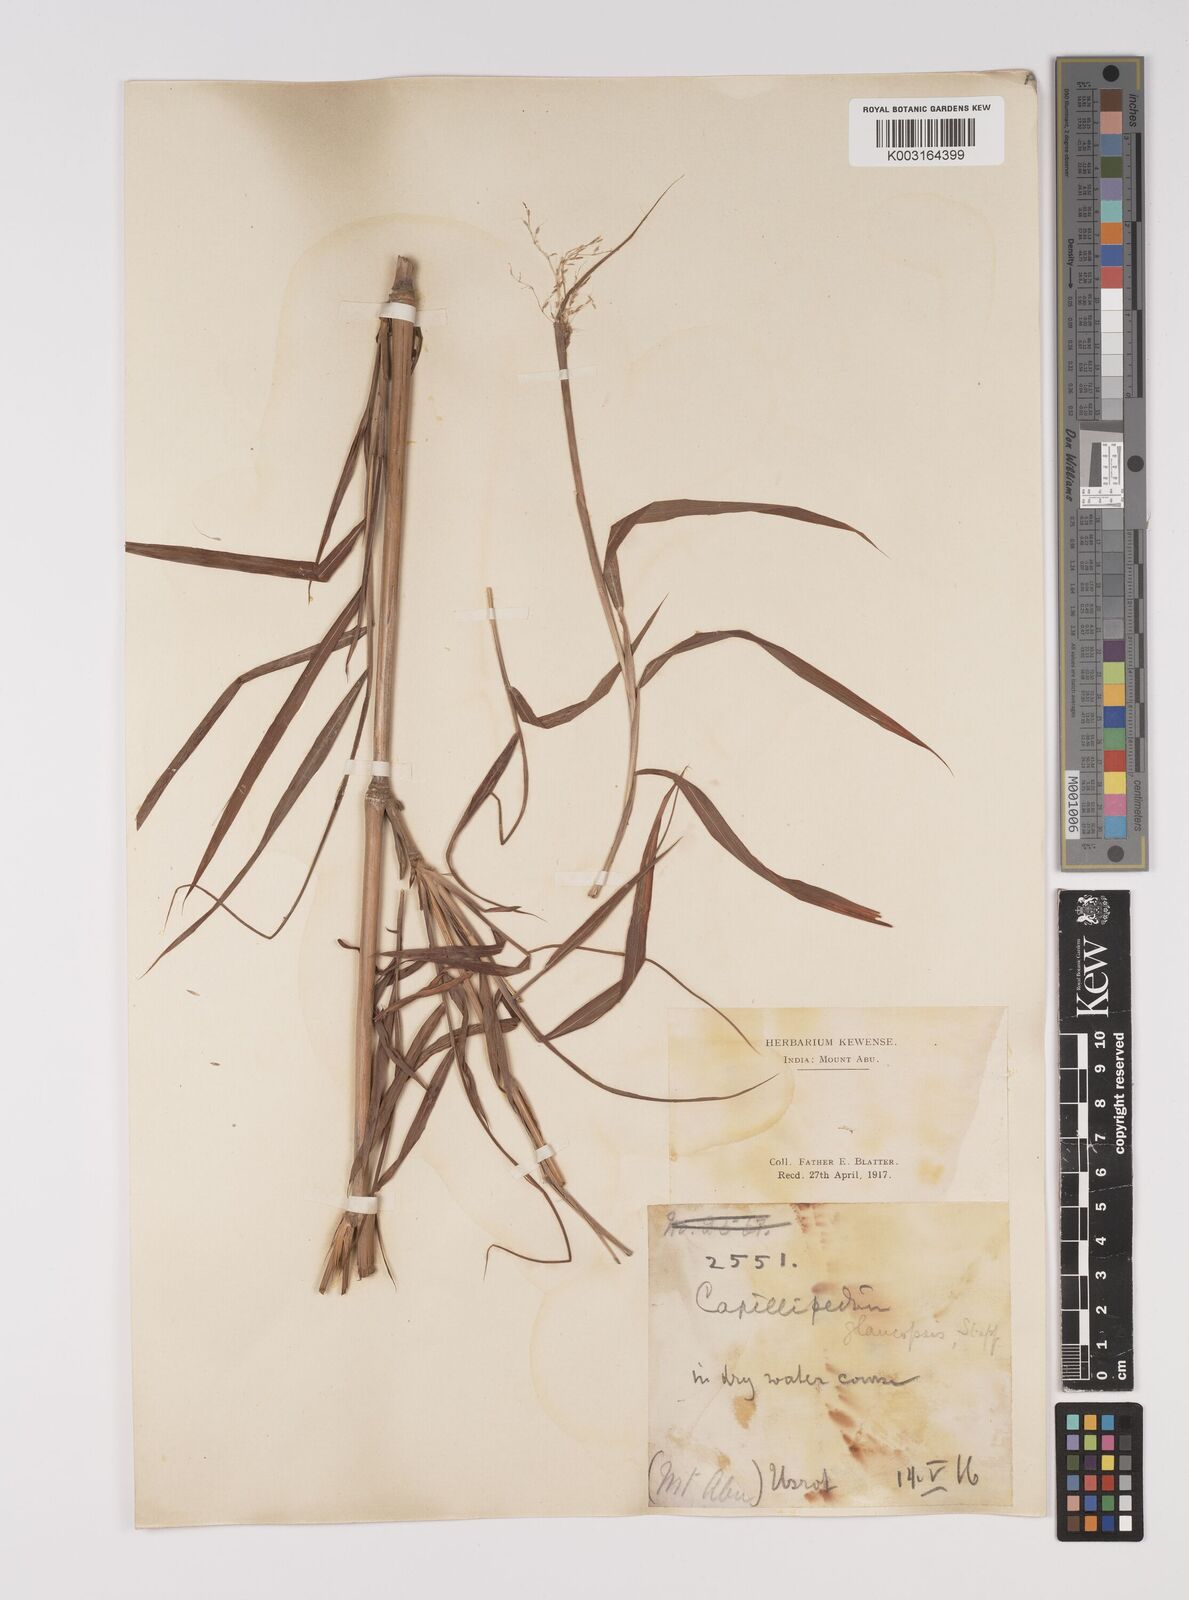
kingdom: Plantae
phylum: Tracheophyta
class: Liliopsida
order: Poales
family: Poaceae
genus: Capillipedium
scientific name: Capillipedium assimile
